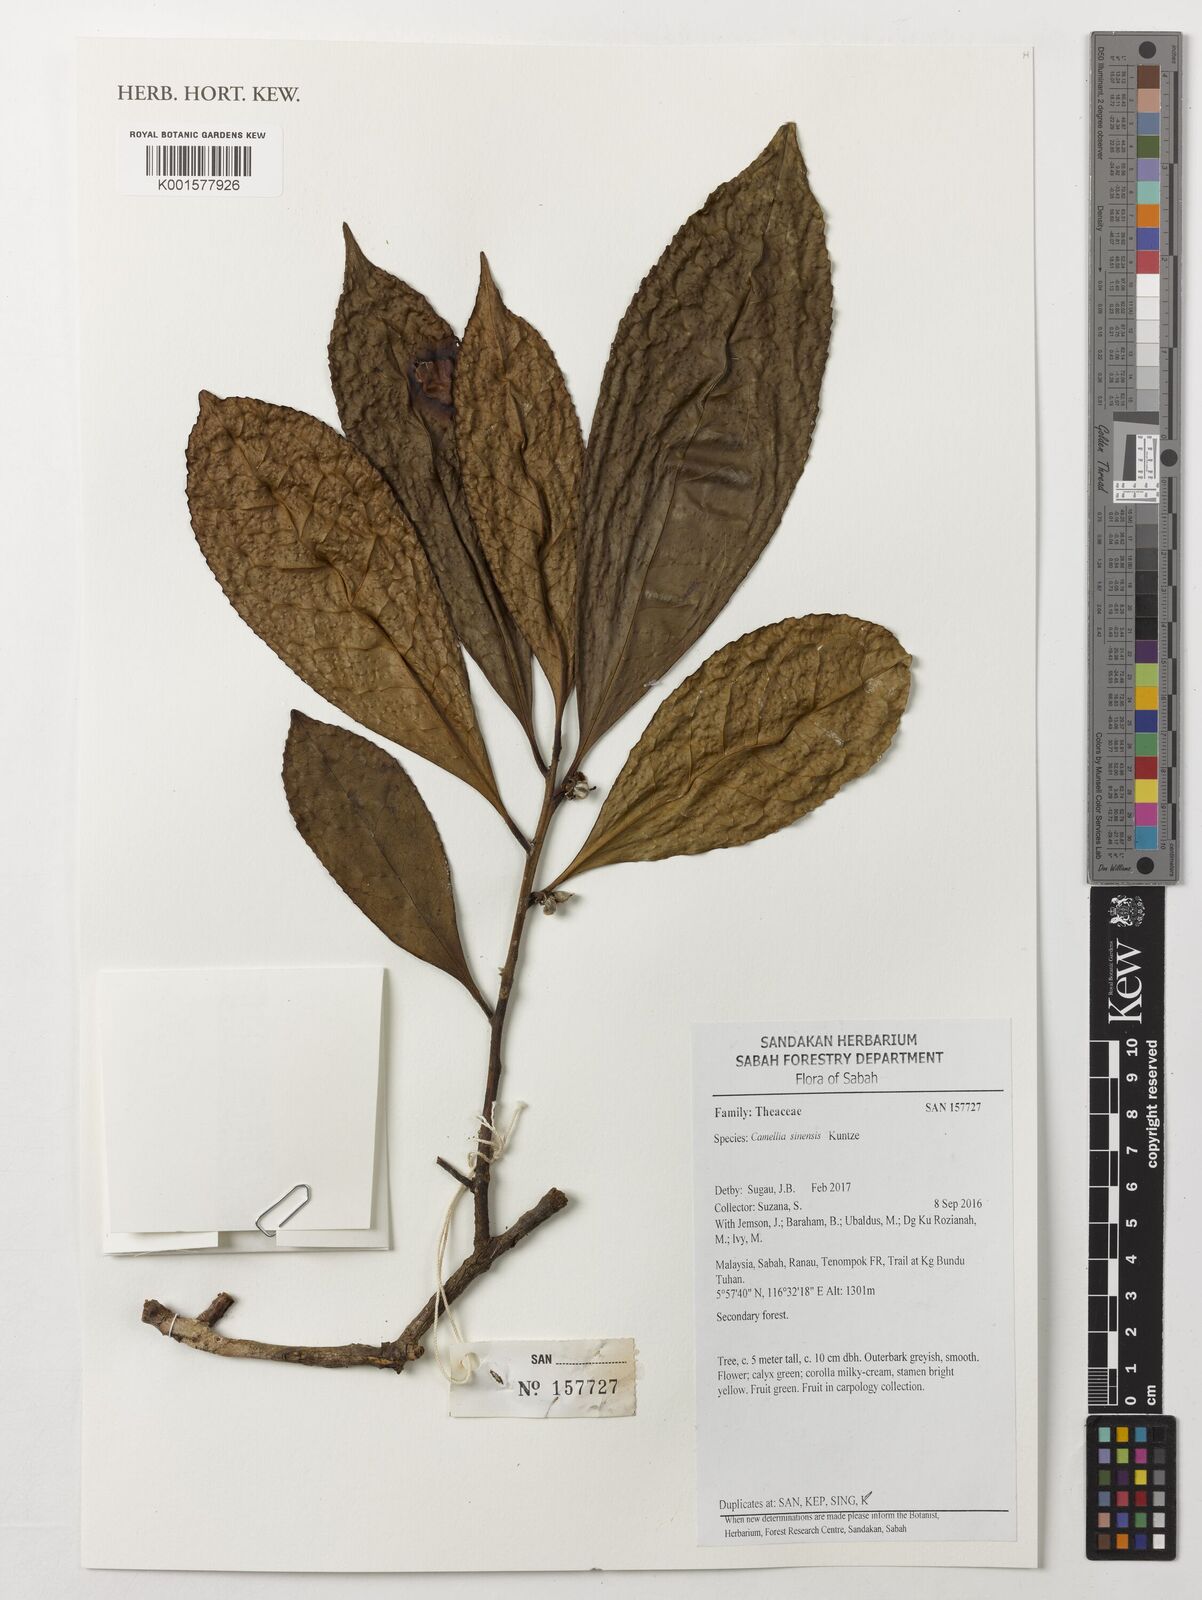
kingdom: Plantae
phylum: Tracheophyta
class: Magnoliopsida
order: Ericales
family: Theaceae
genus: Camellia
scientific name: Camellia sinensis
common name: Tea
